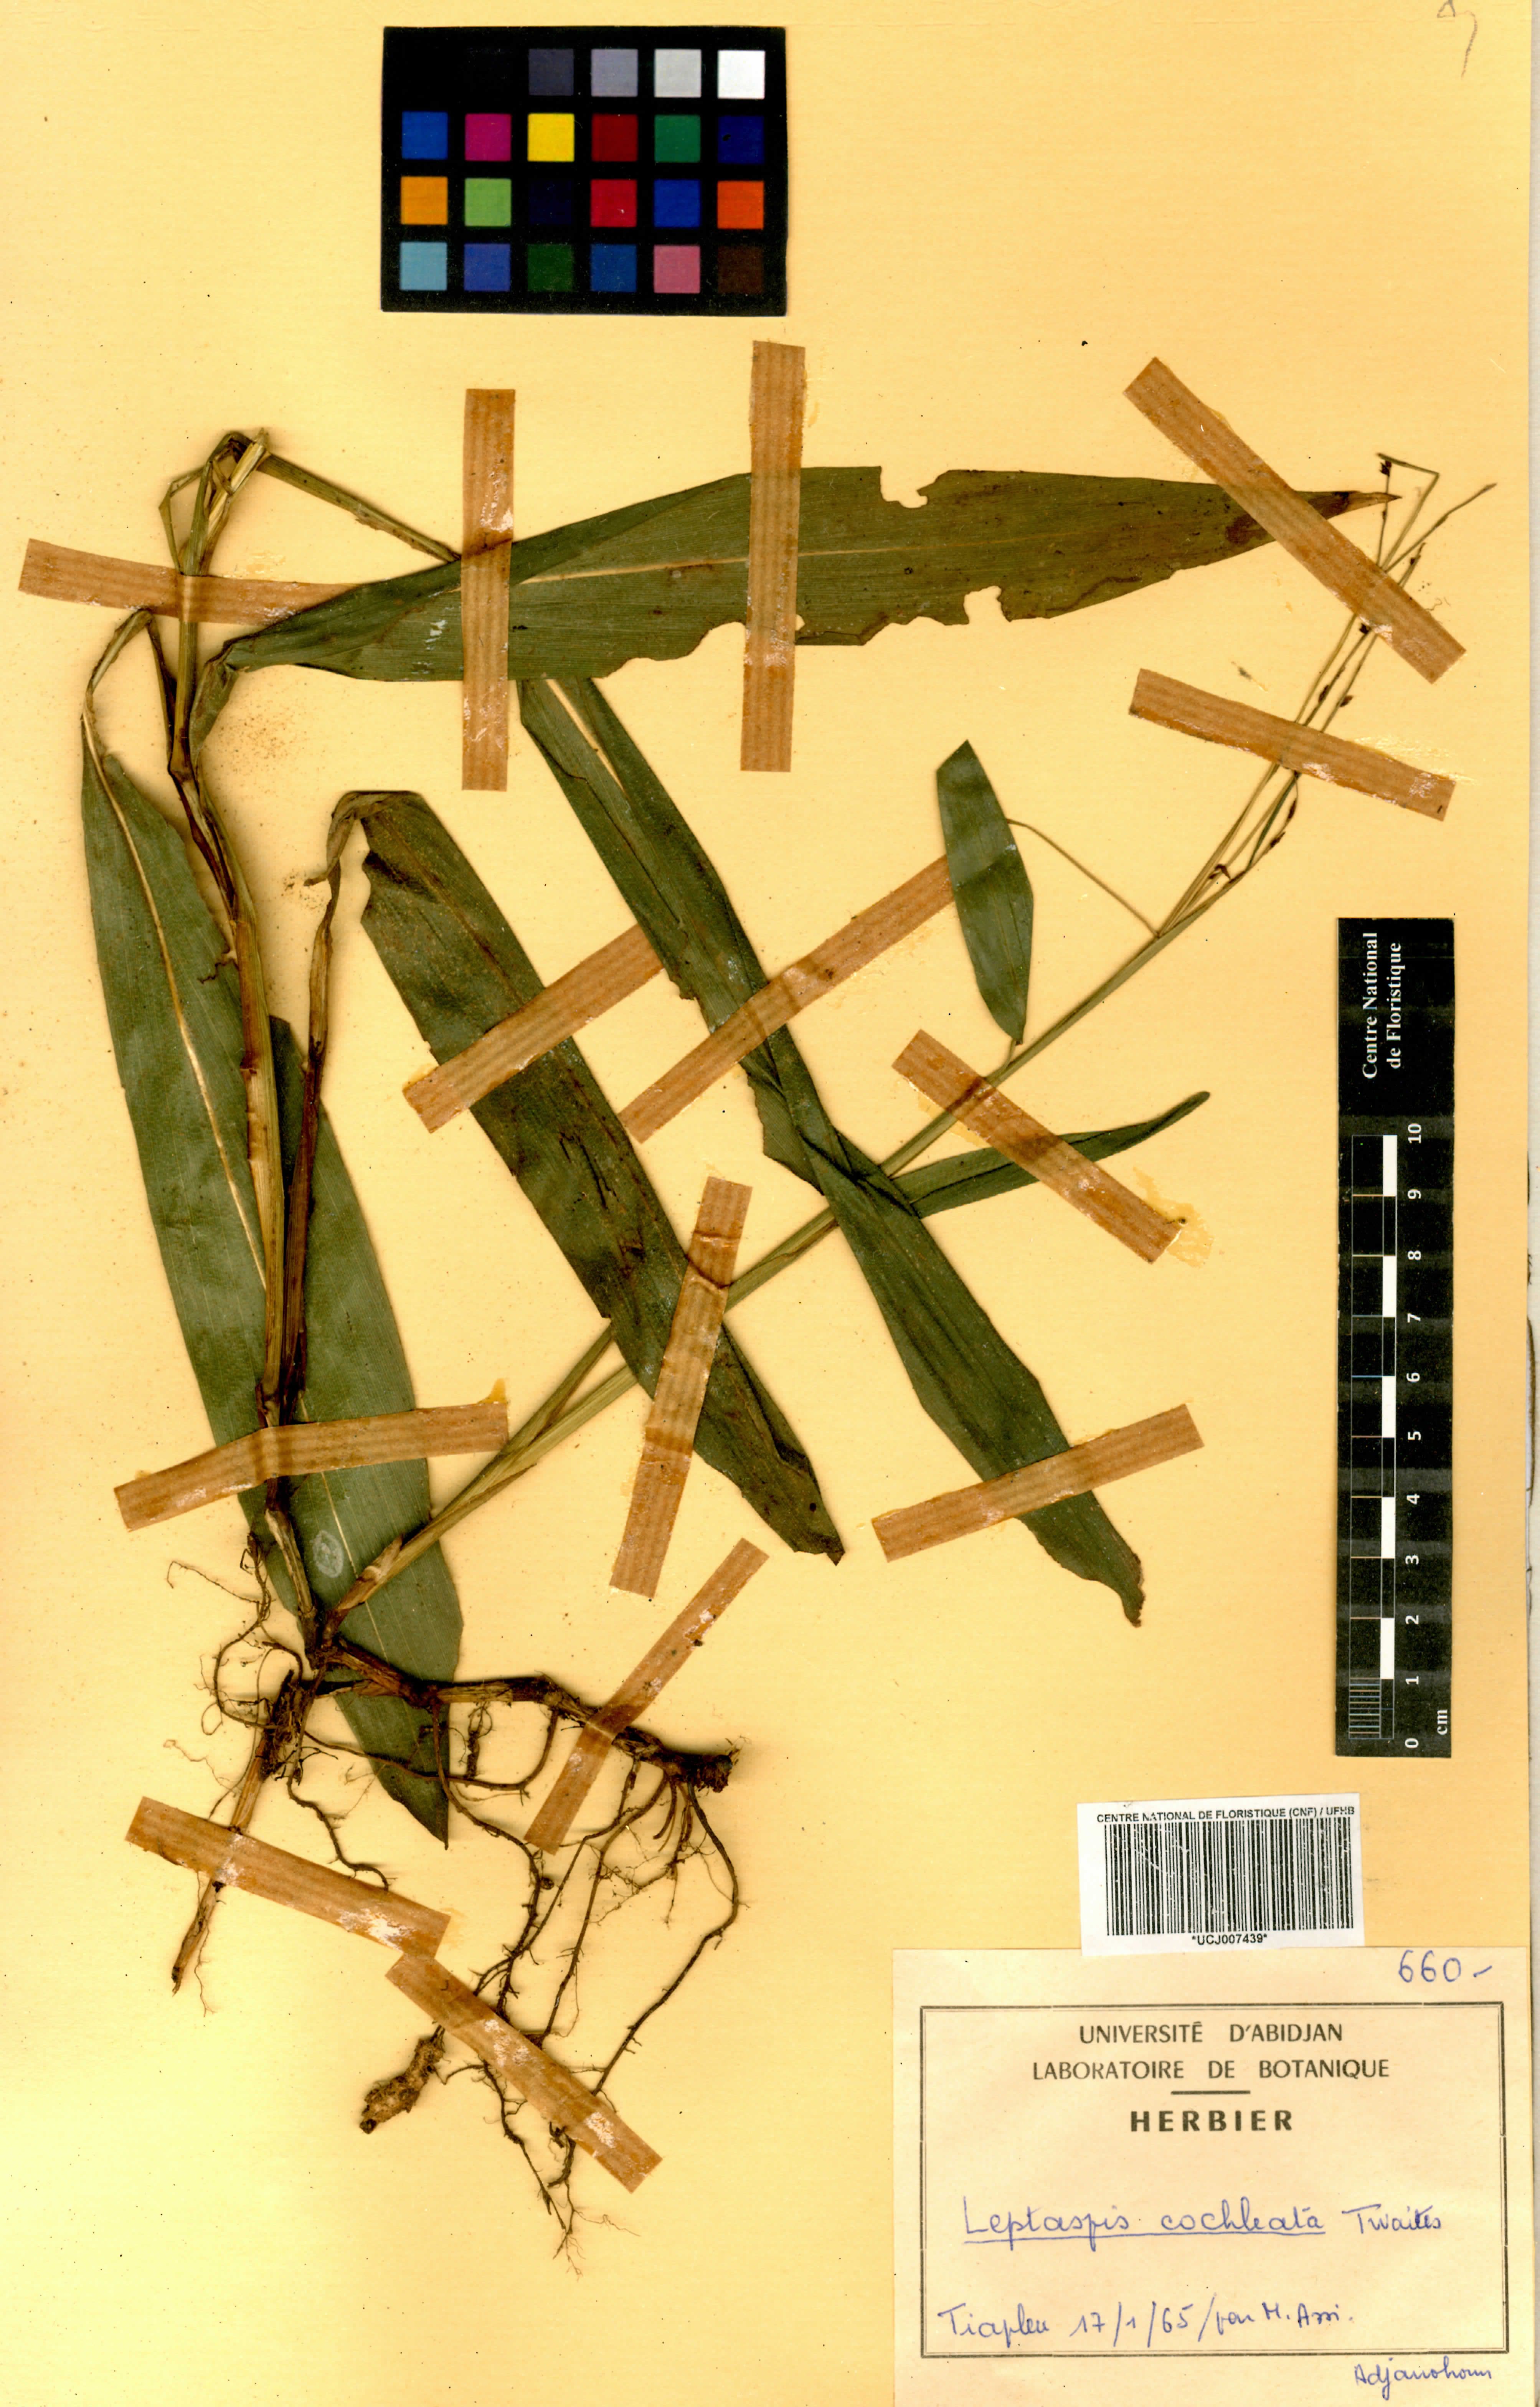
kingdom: Plantae
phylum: Tracheophyta
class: Liliopsida
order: Poales
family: Poaceae
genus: Leptaspis
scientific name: Leptaspis zeylanica
